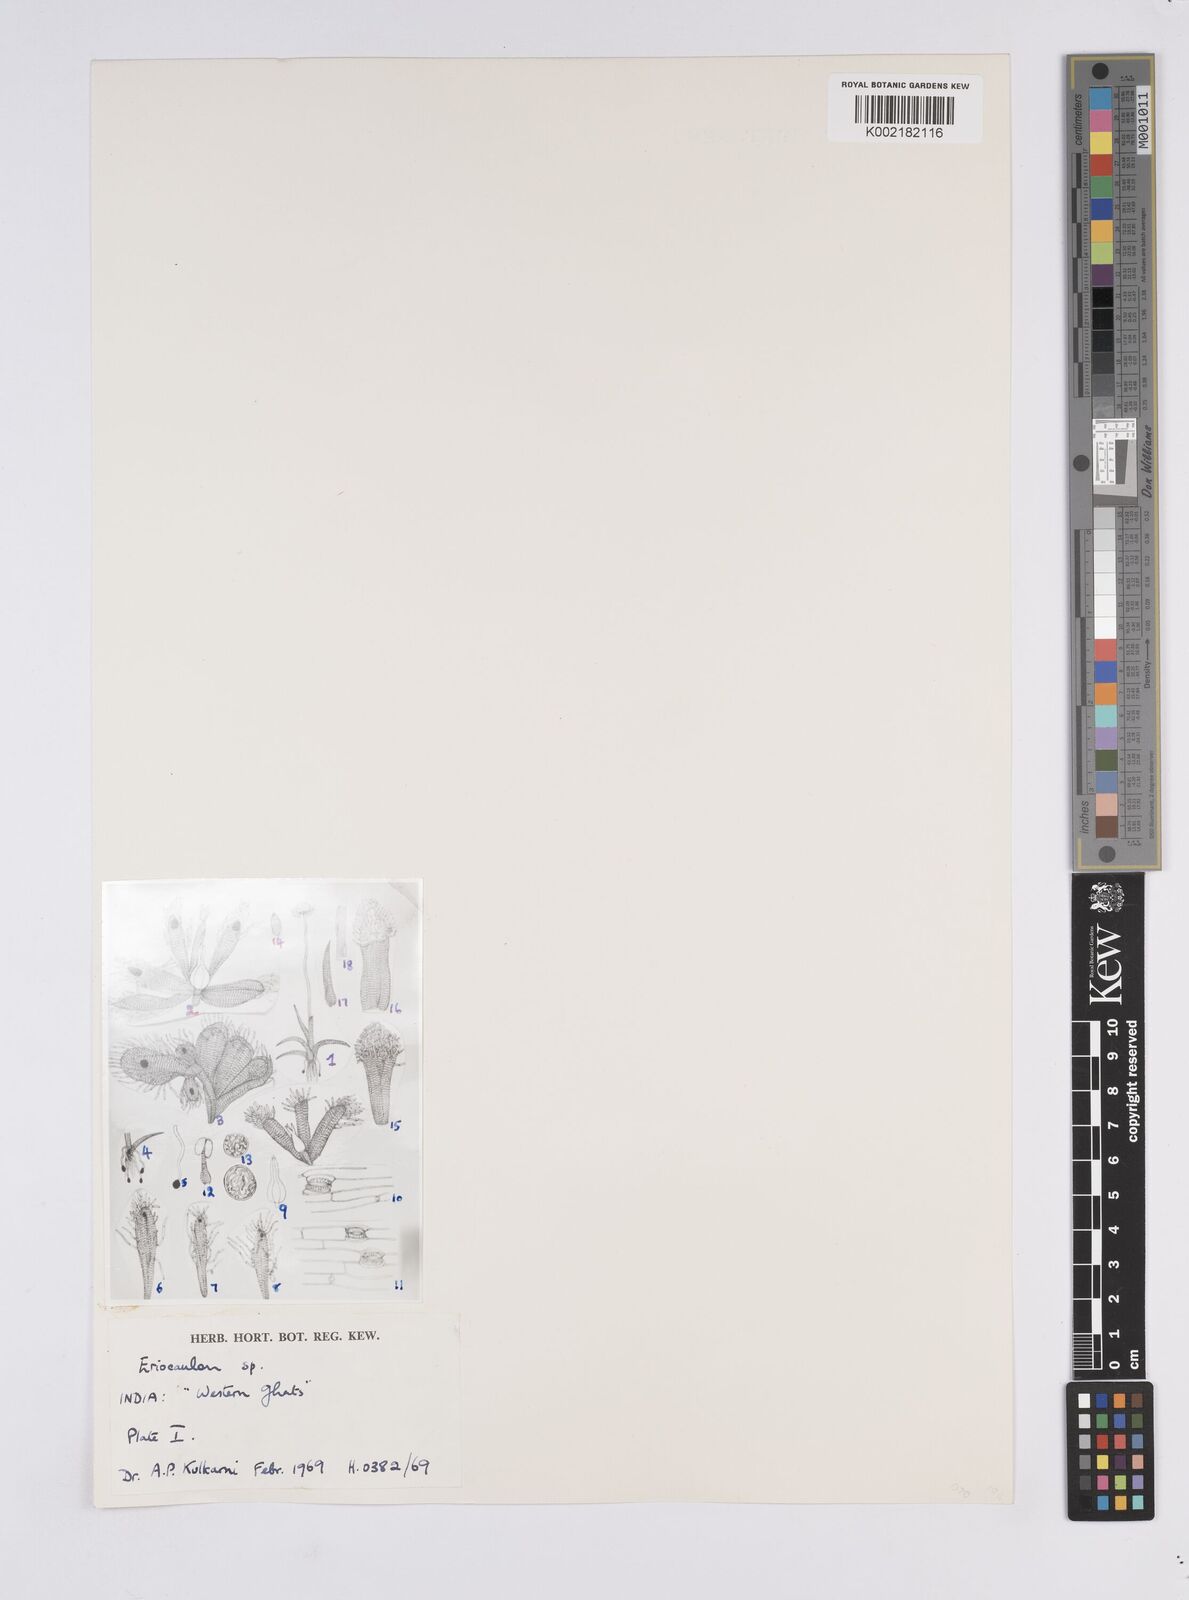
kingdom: Plantae
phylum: Tracheophyta
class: Liliopsida
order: Poales
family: Eriocaulaceae
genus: Eriocaulon
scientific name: Eriocaulon
